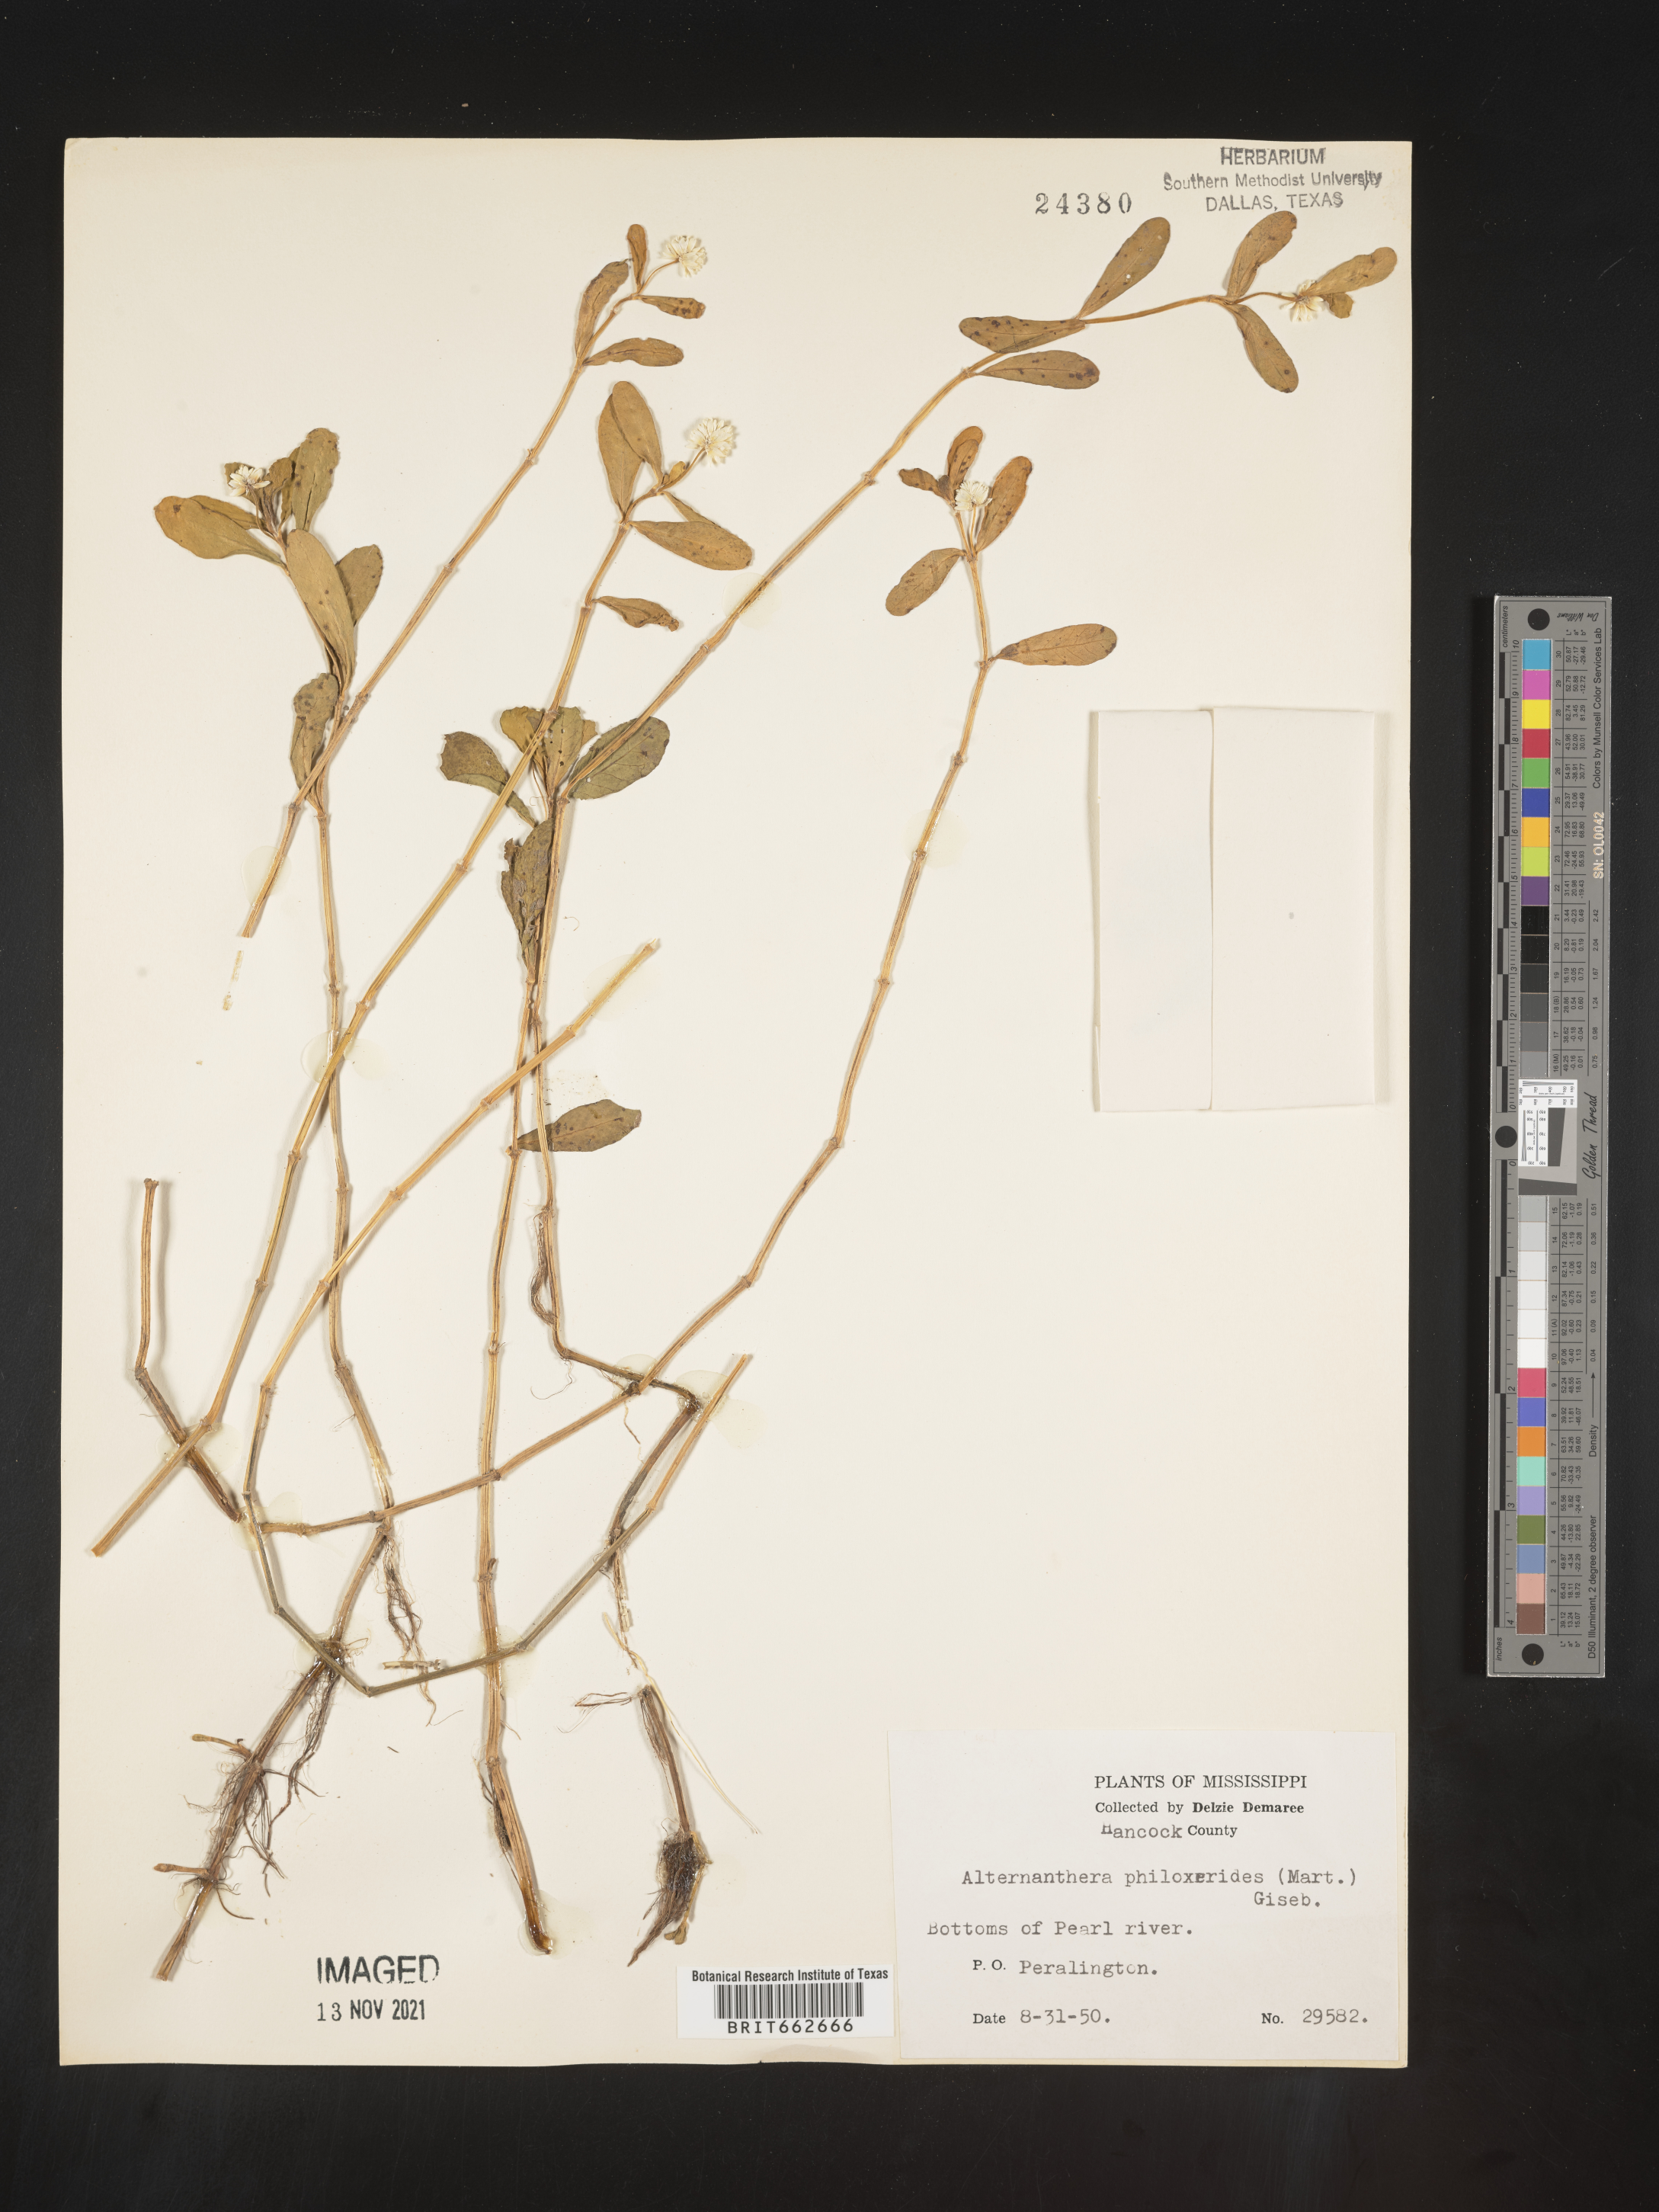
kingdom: Plantae
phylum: Tracheophyta
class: Magnoliopsida
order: Caryophyllales
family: Amaranthaceae
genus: Alternanthera
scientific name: Alternanthera philoxeroides
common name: Alligatorweed
